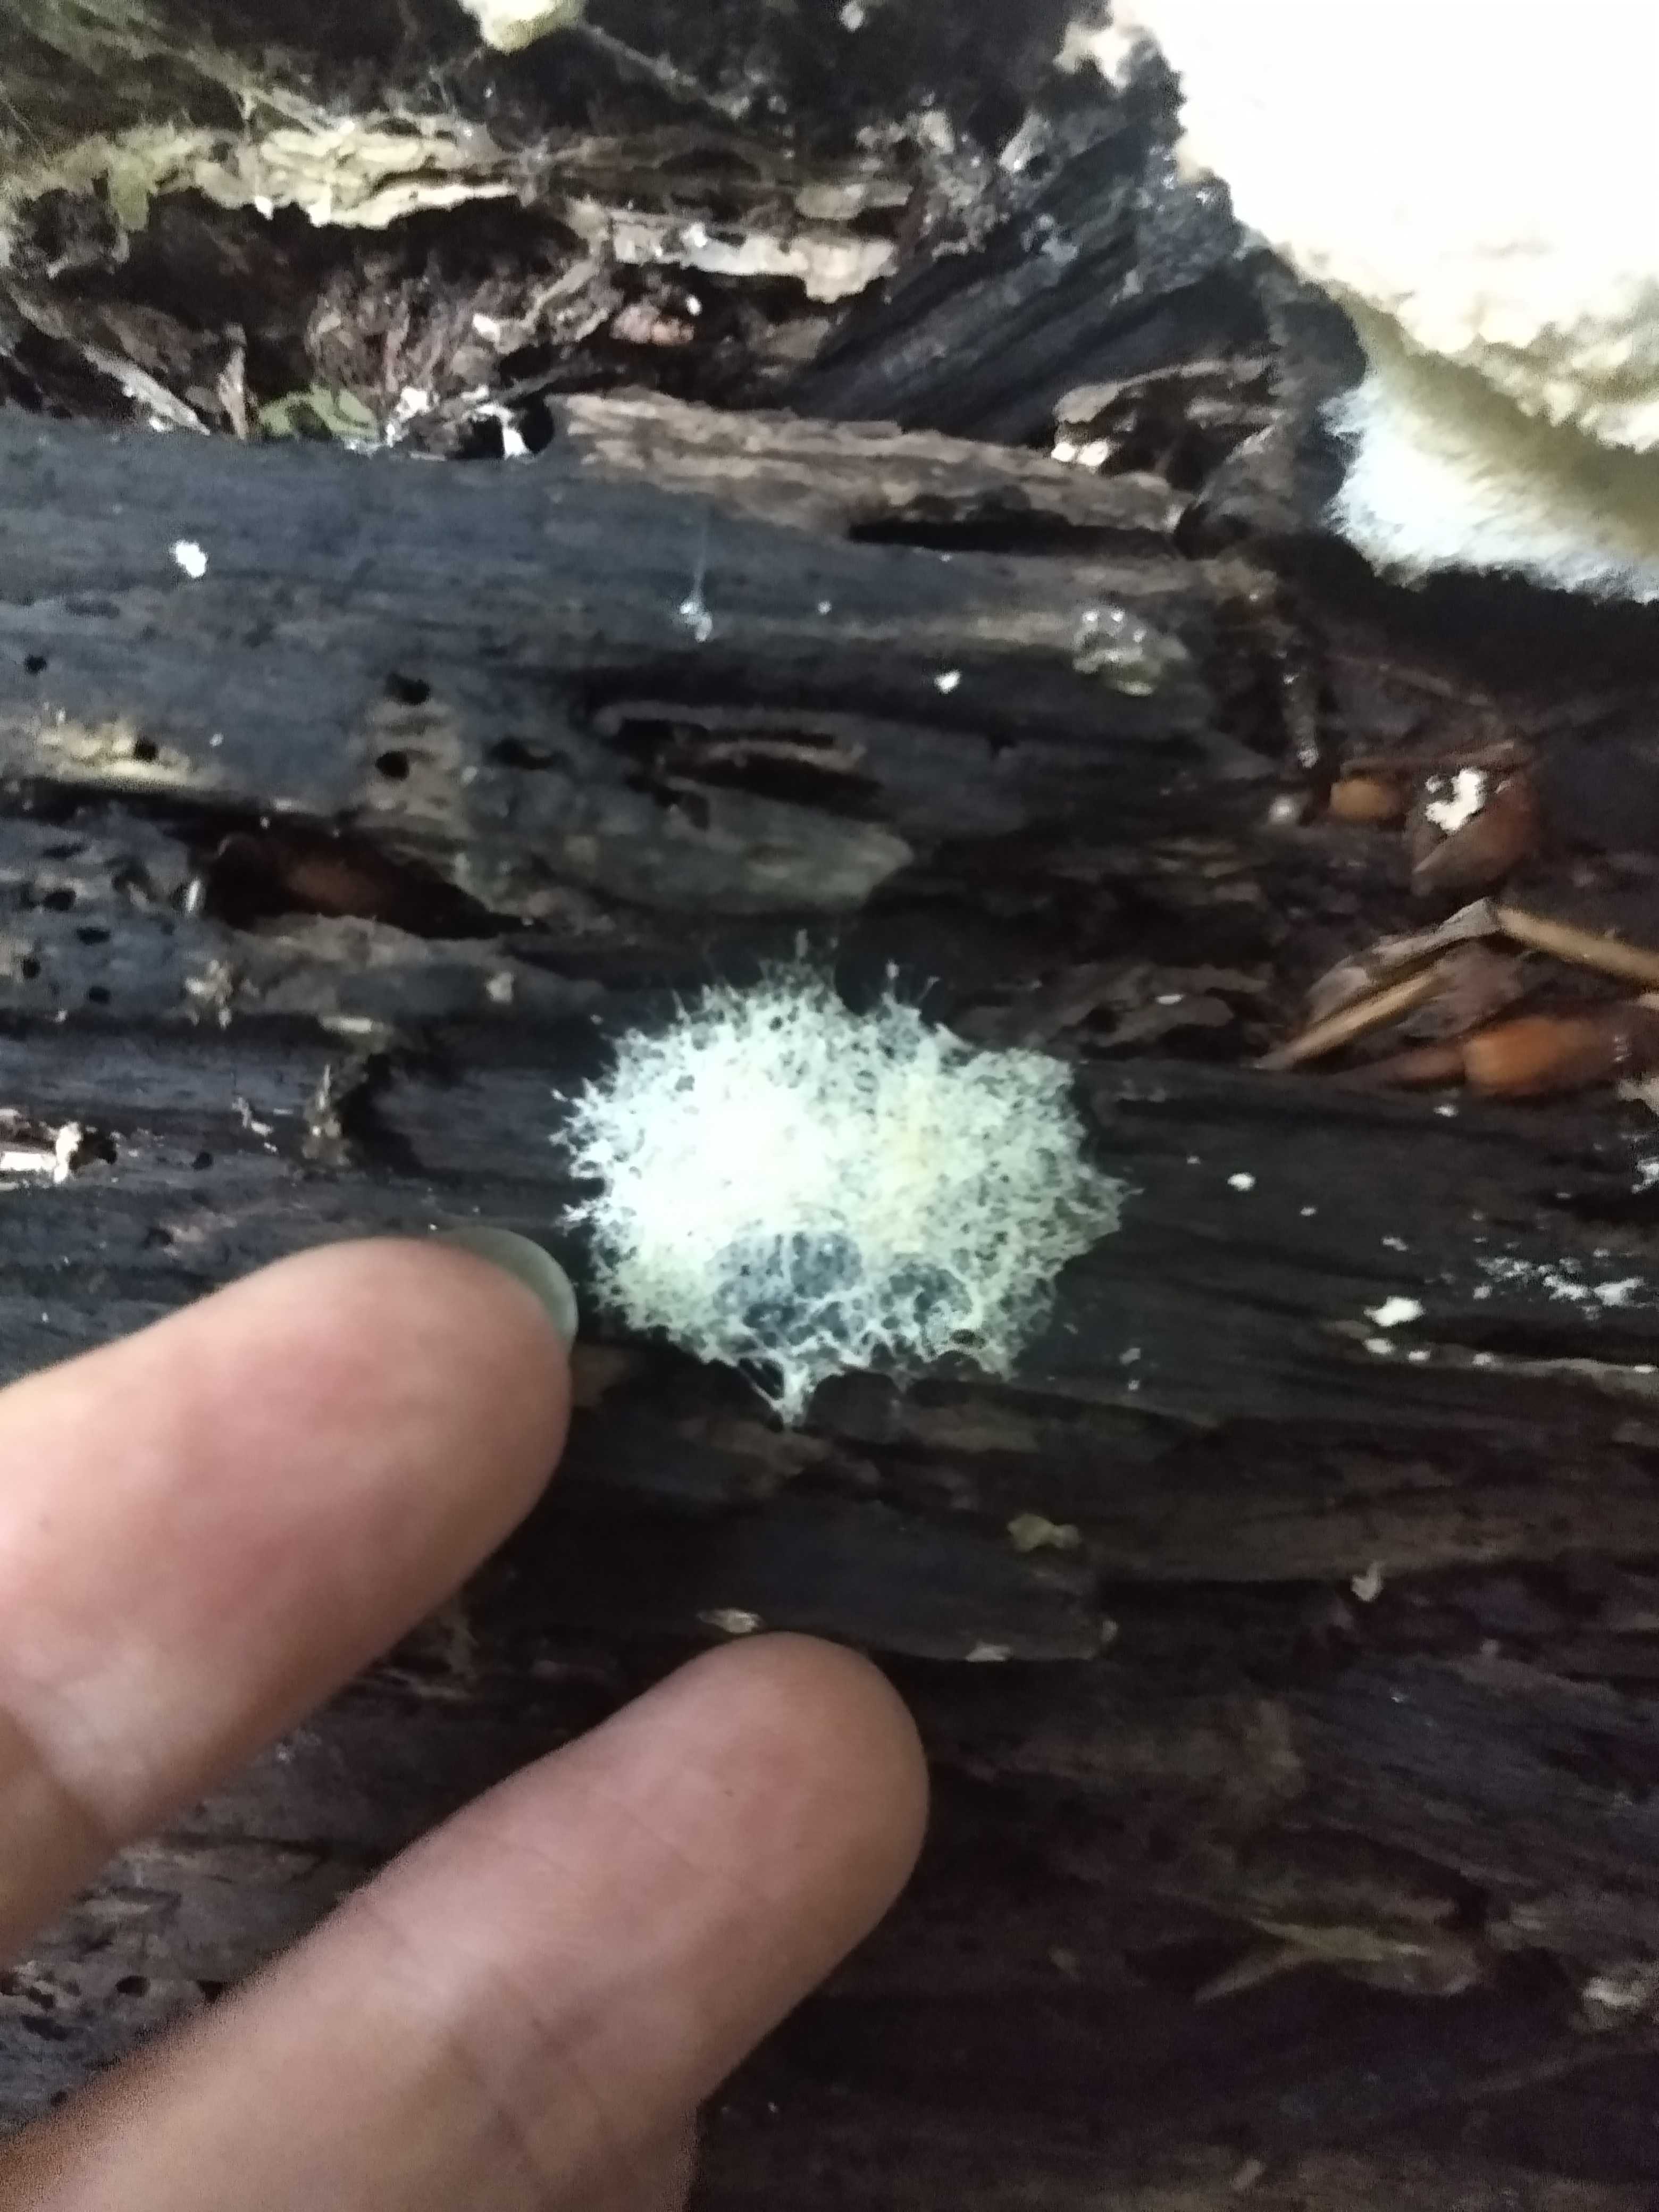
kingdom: Protozoa
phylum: Mycetozoa
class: Myxomycetes
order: Physarales
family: Physaraceae
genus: Fuligo
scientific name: Fuligo septica
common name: gul troldsmør
